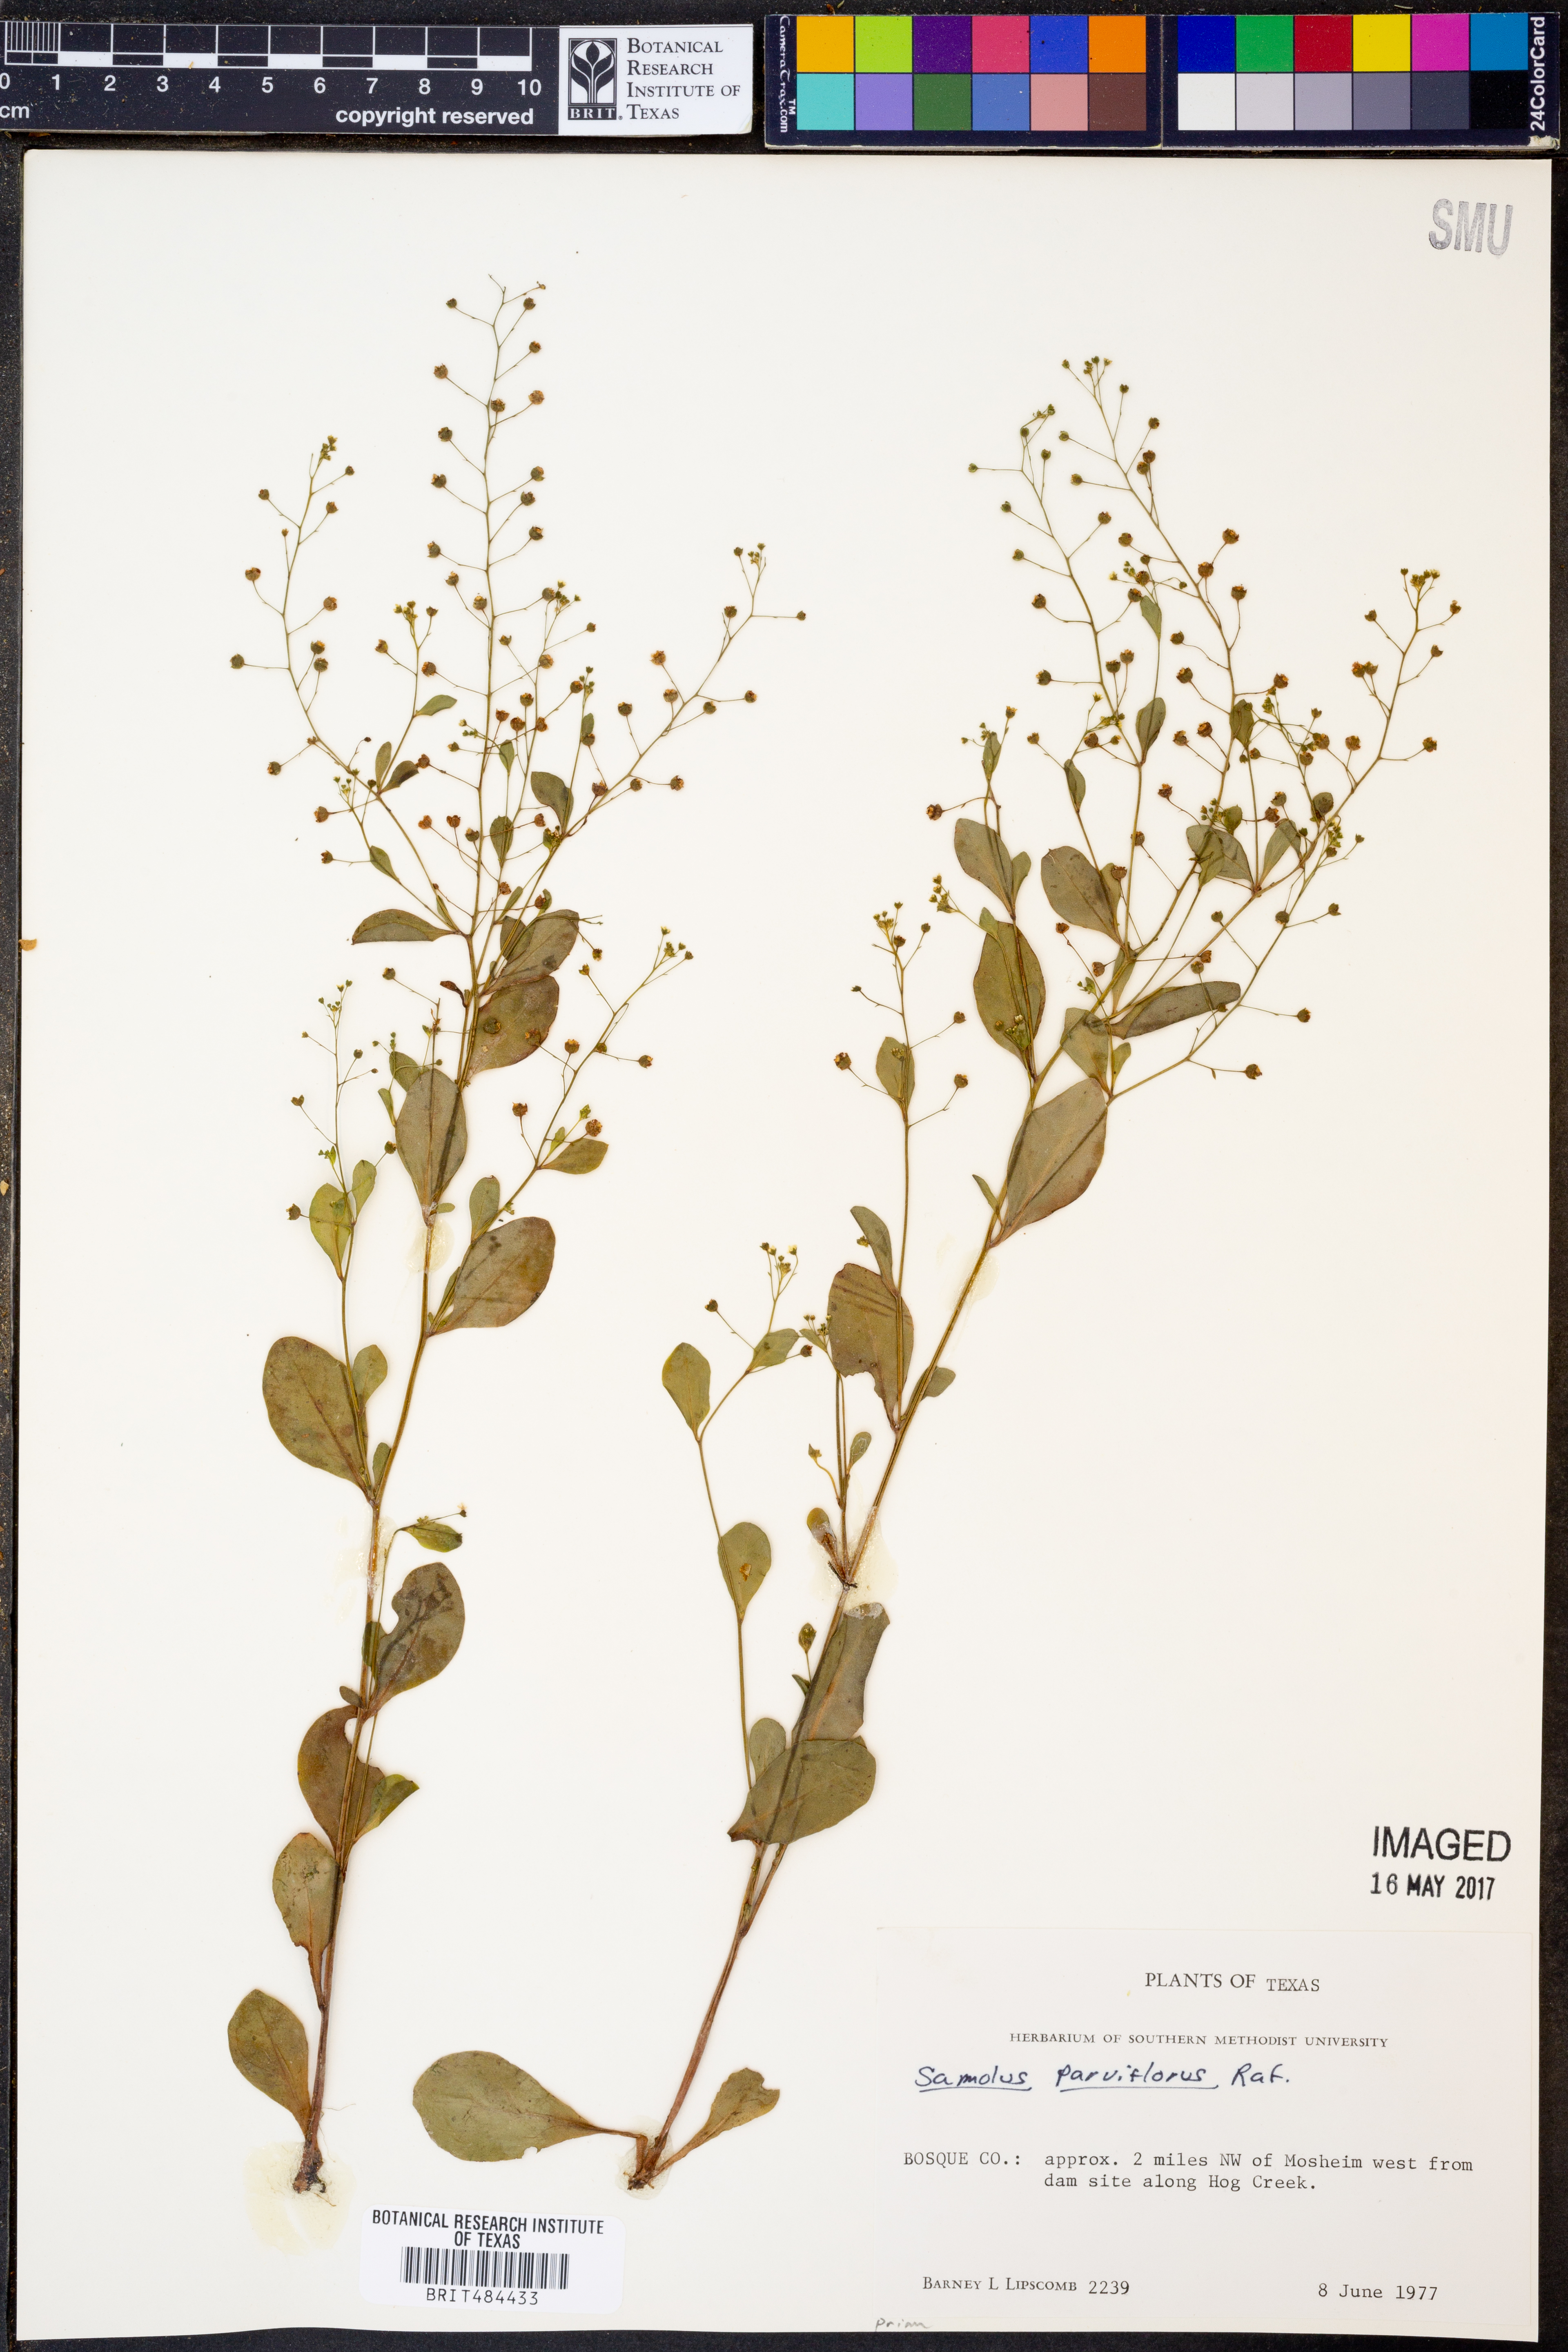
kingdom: Plantae
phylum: Tracheophyta
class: Magnoliopsida
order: Ericales
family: Primulaceae
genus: Samolus
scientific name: Samolus parviflorus
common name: False water pimpernel
